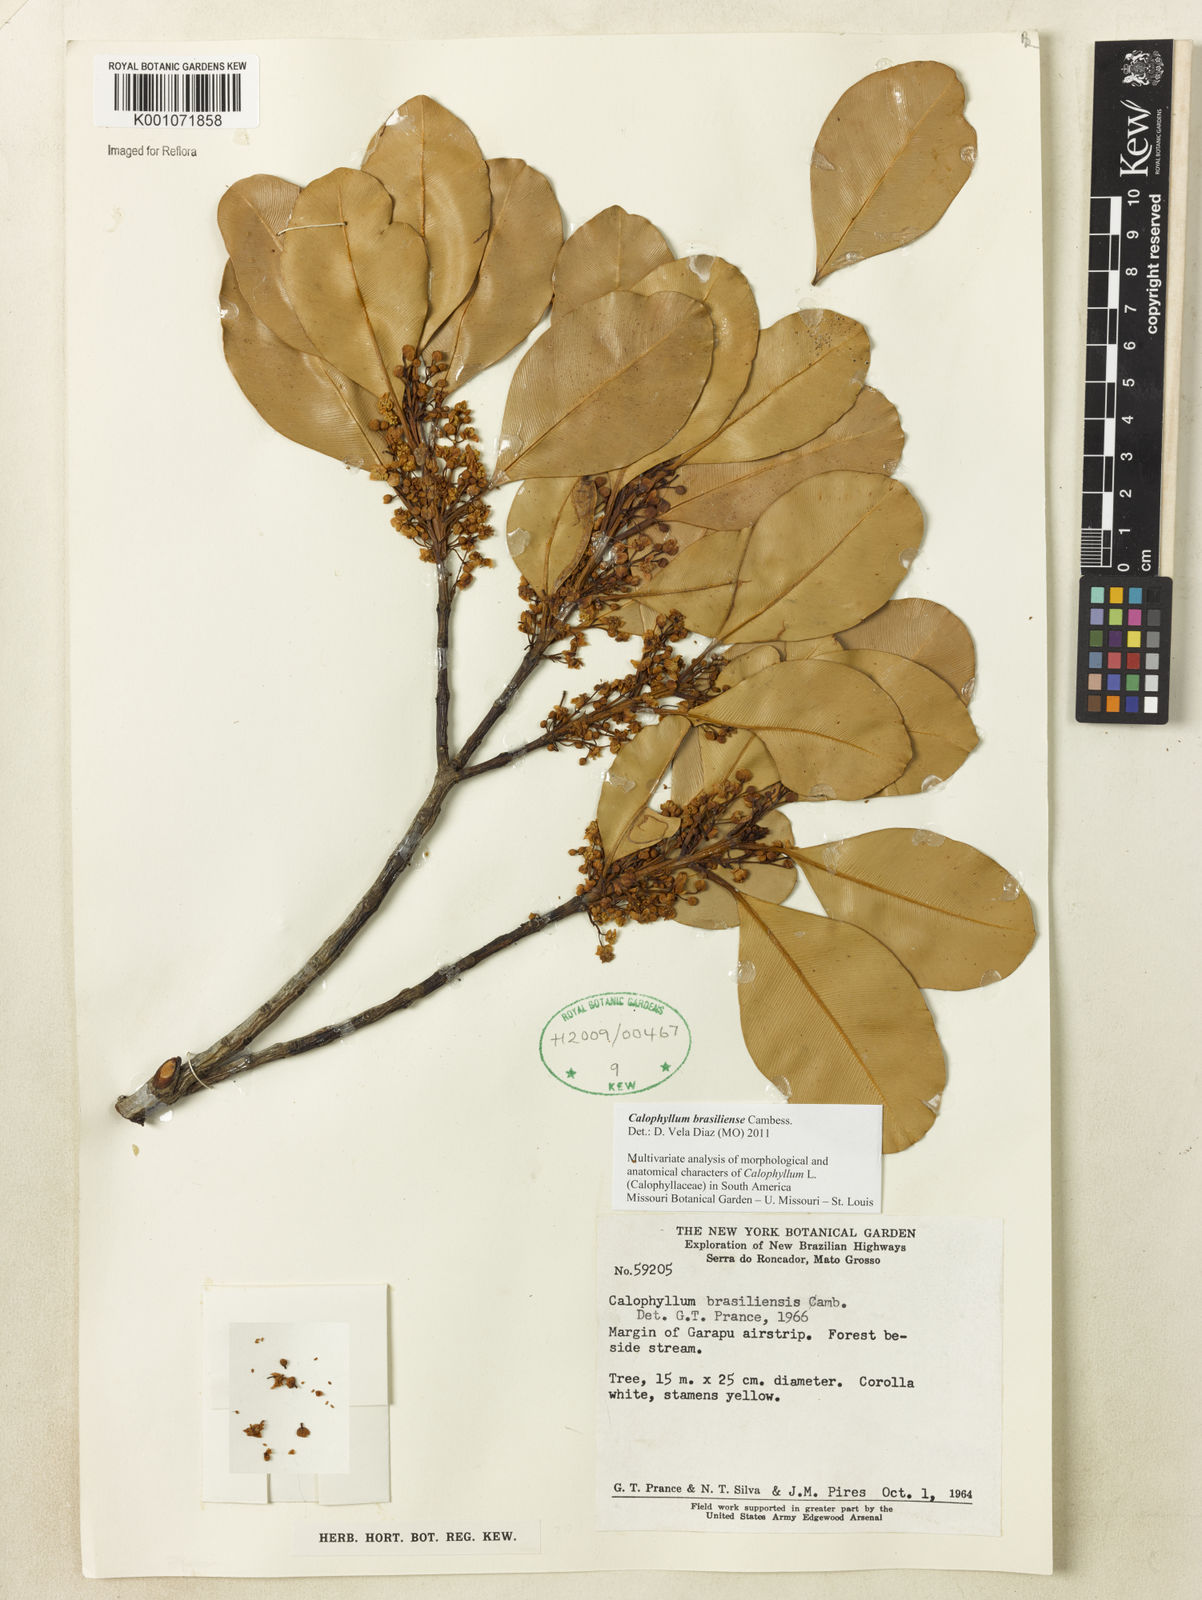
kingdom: Plantae
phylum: Tracheophyta
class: Magnoliopsida
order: Malpighiales
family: Calophyllaceae
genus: Calophyllum
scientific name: Calophyllum brasiliense
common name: Santa maria
